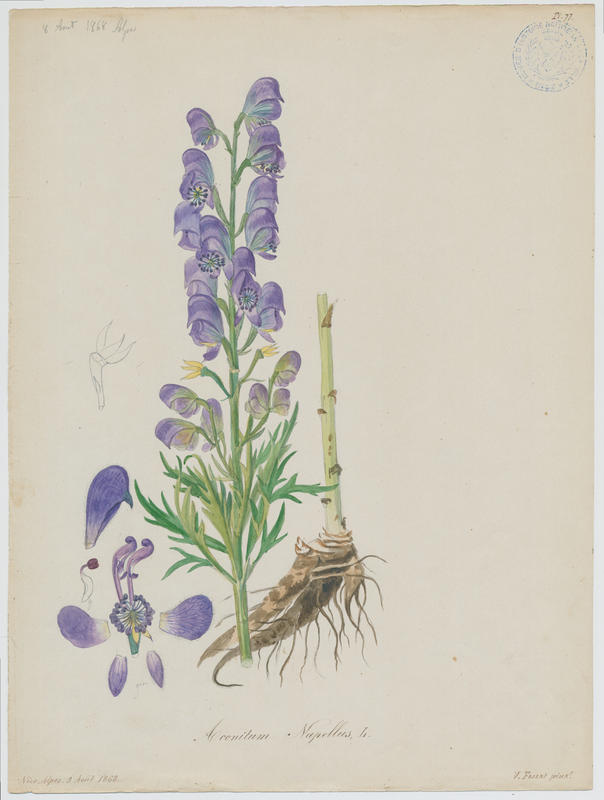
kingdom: Plantae
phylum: Tracheophyta
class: Magnoliopsida
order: Ranunculales
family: Ranunculaceae
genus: Aconitum
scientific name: Aconitum napellus
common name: Garden monkshood
